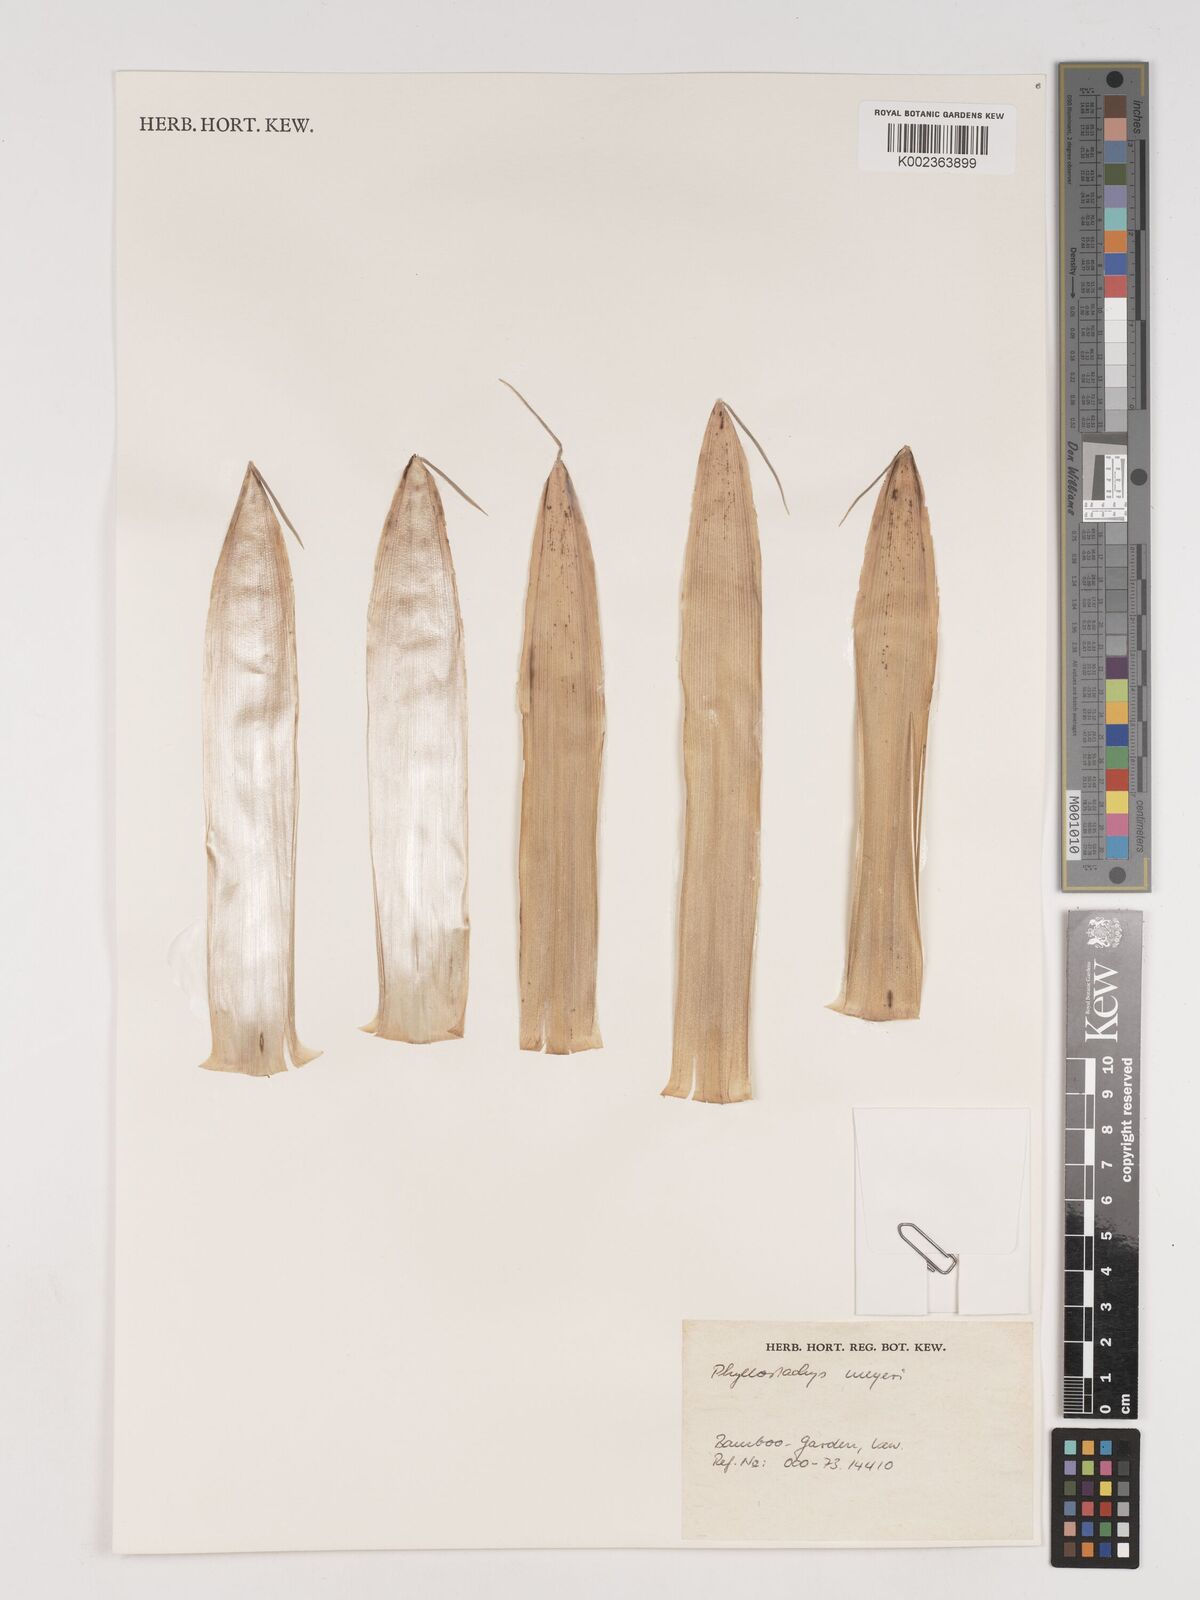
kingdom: Plantae
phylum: Tracheophyta
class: Liliopsida
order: Poales
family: Poaceae
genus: Phyllostachys
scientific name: Phyllostachys meyeri
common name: Meyer's bamboo
